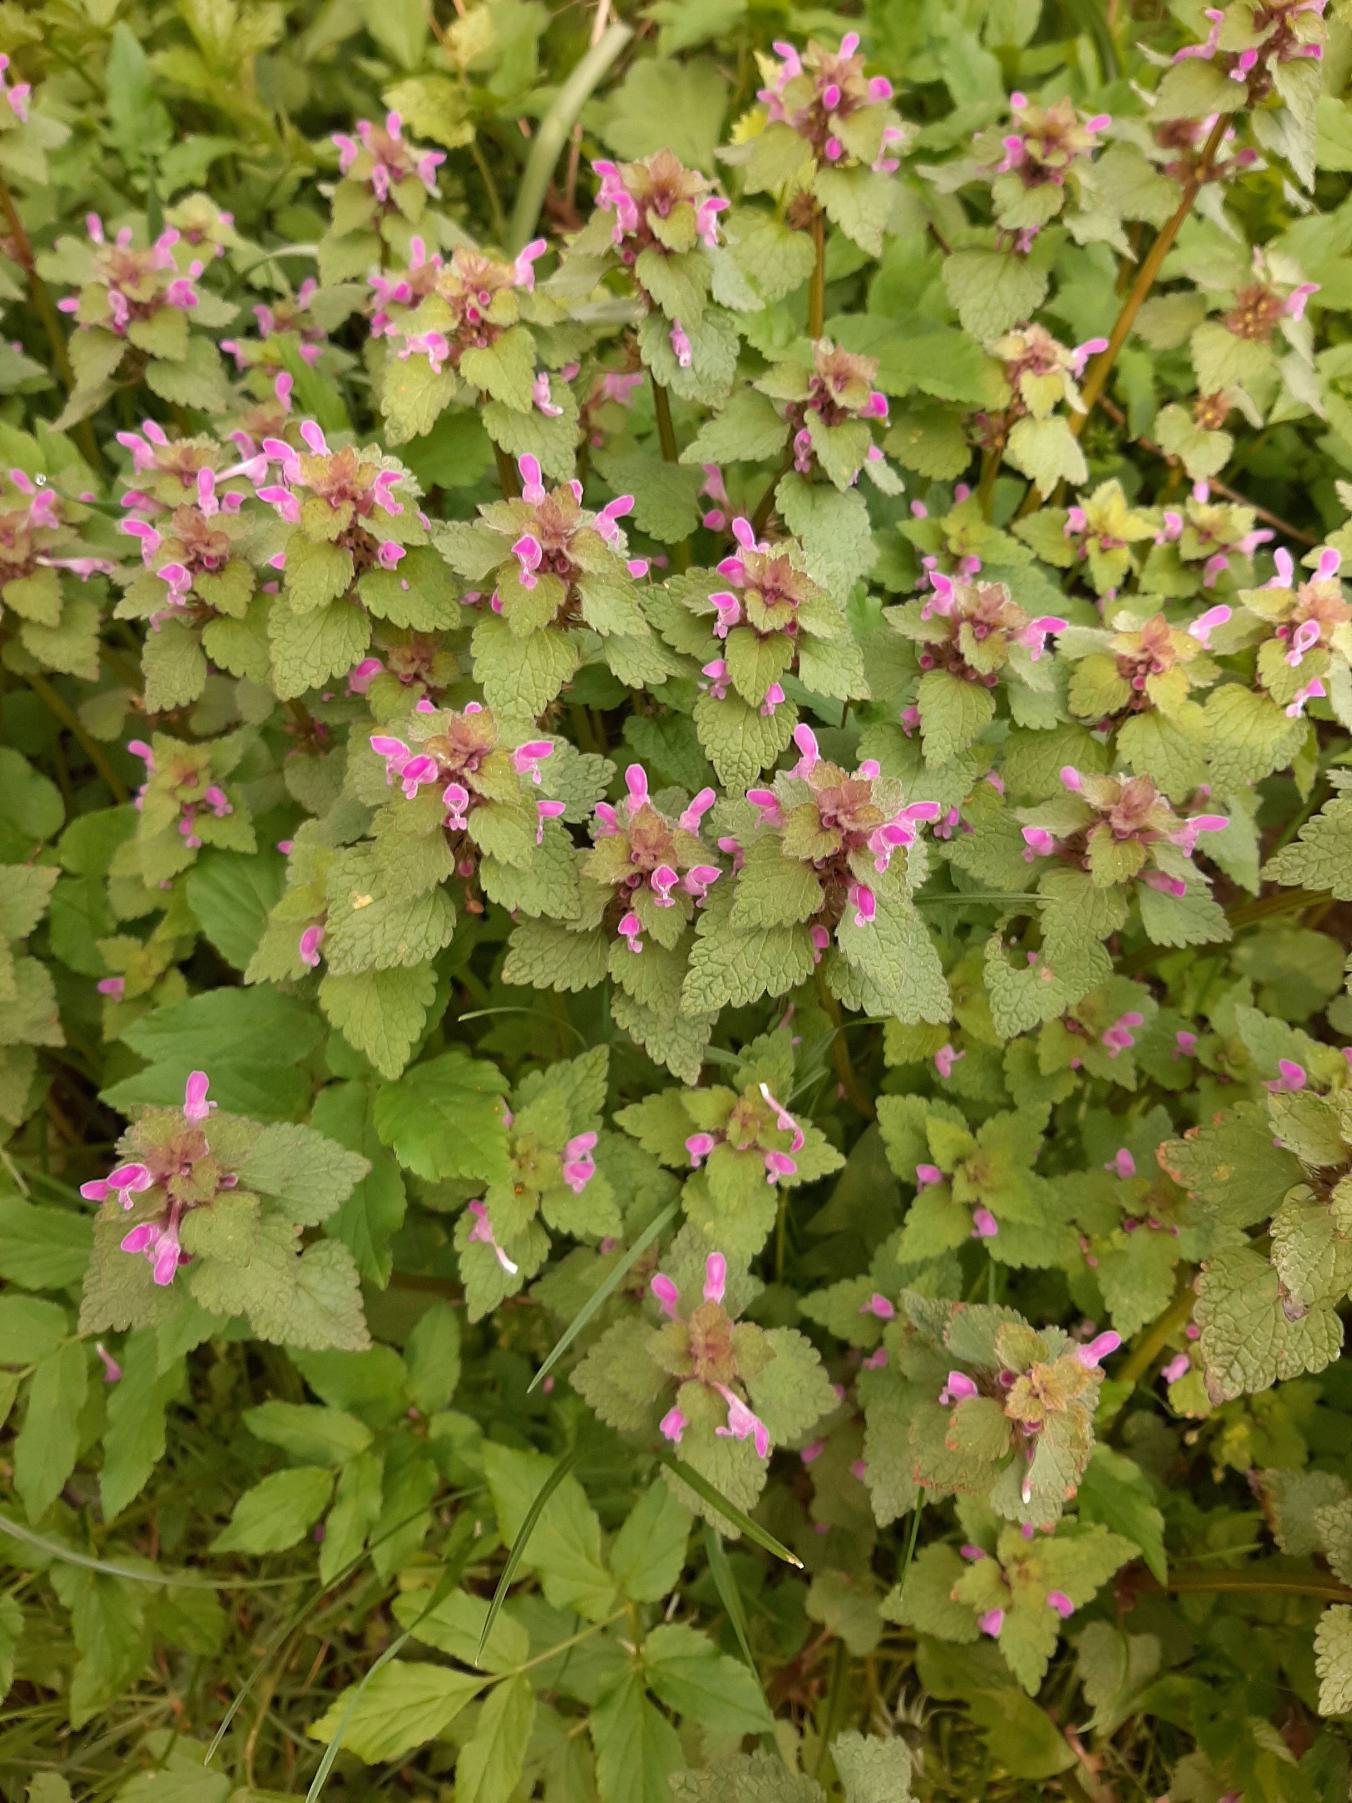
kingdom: Plantae
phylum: Tracheophyta
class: Magnoliopsida
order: Lamiales
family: Lamiaceae
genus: Lamium
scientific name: Lamium purpureum
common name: Rød tvetand
